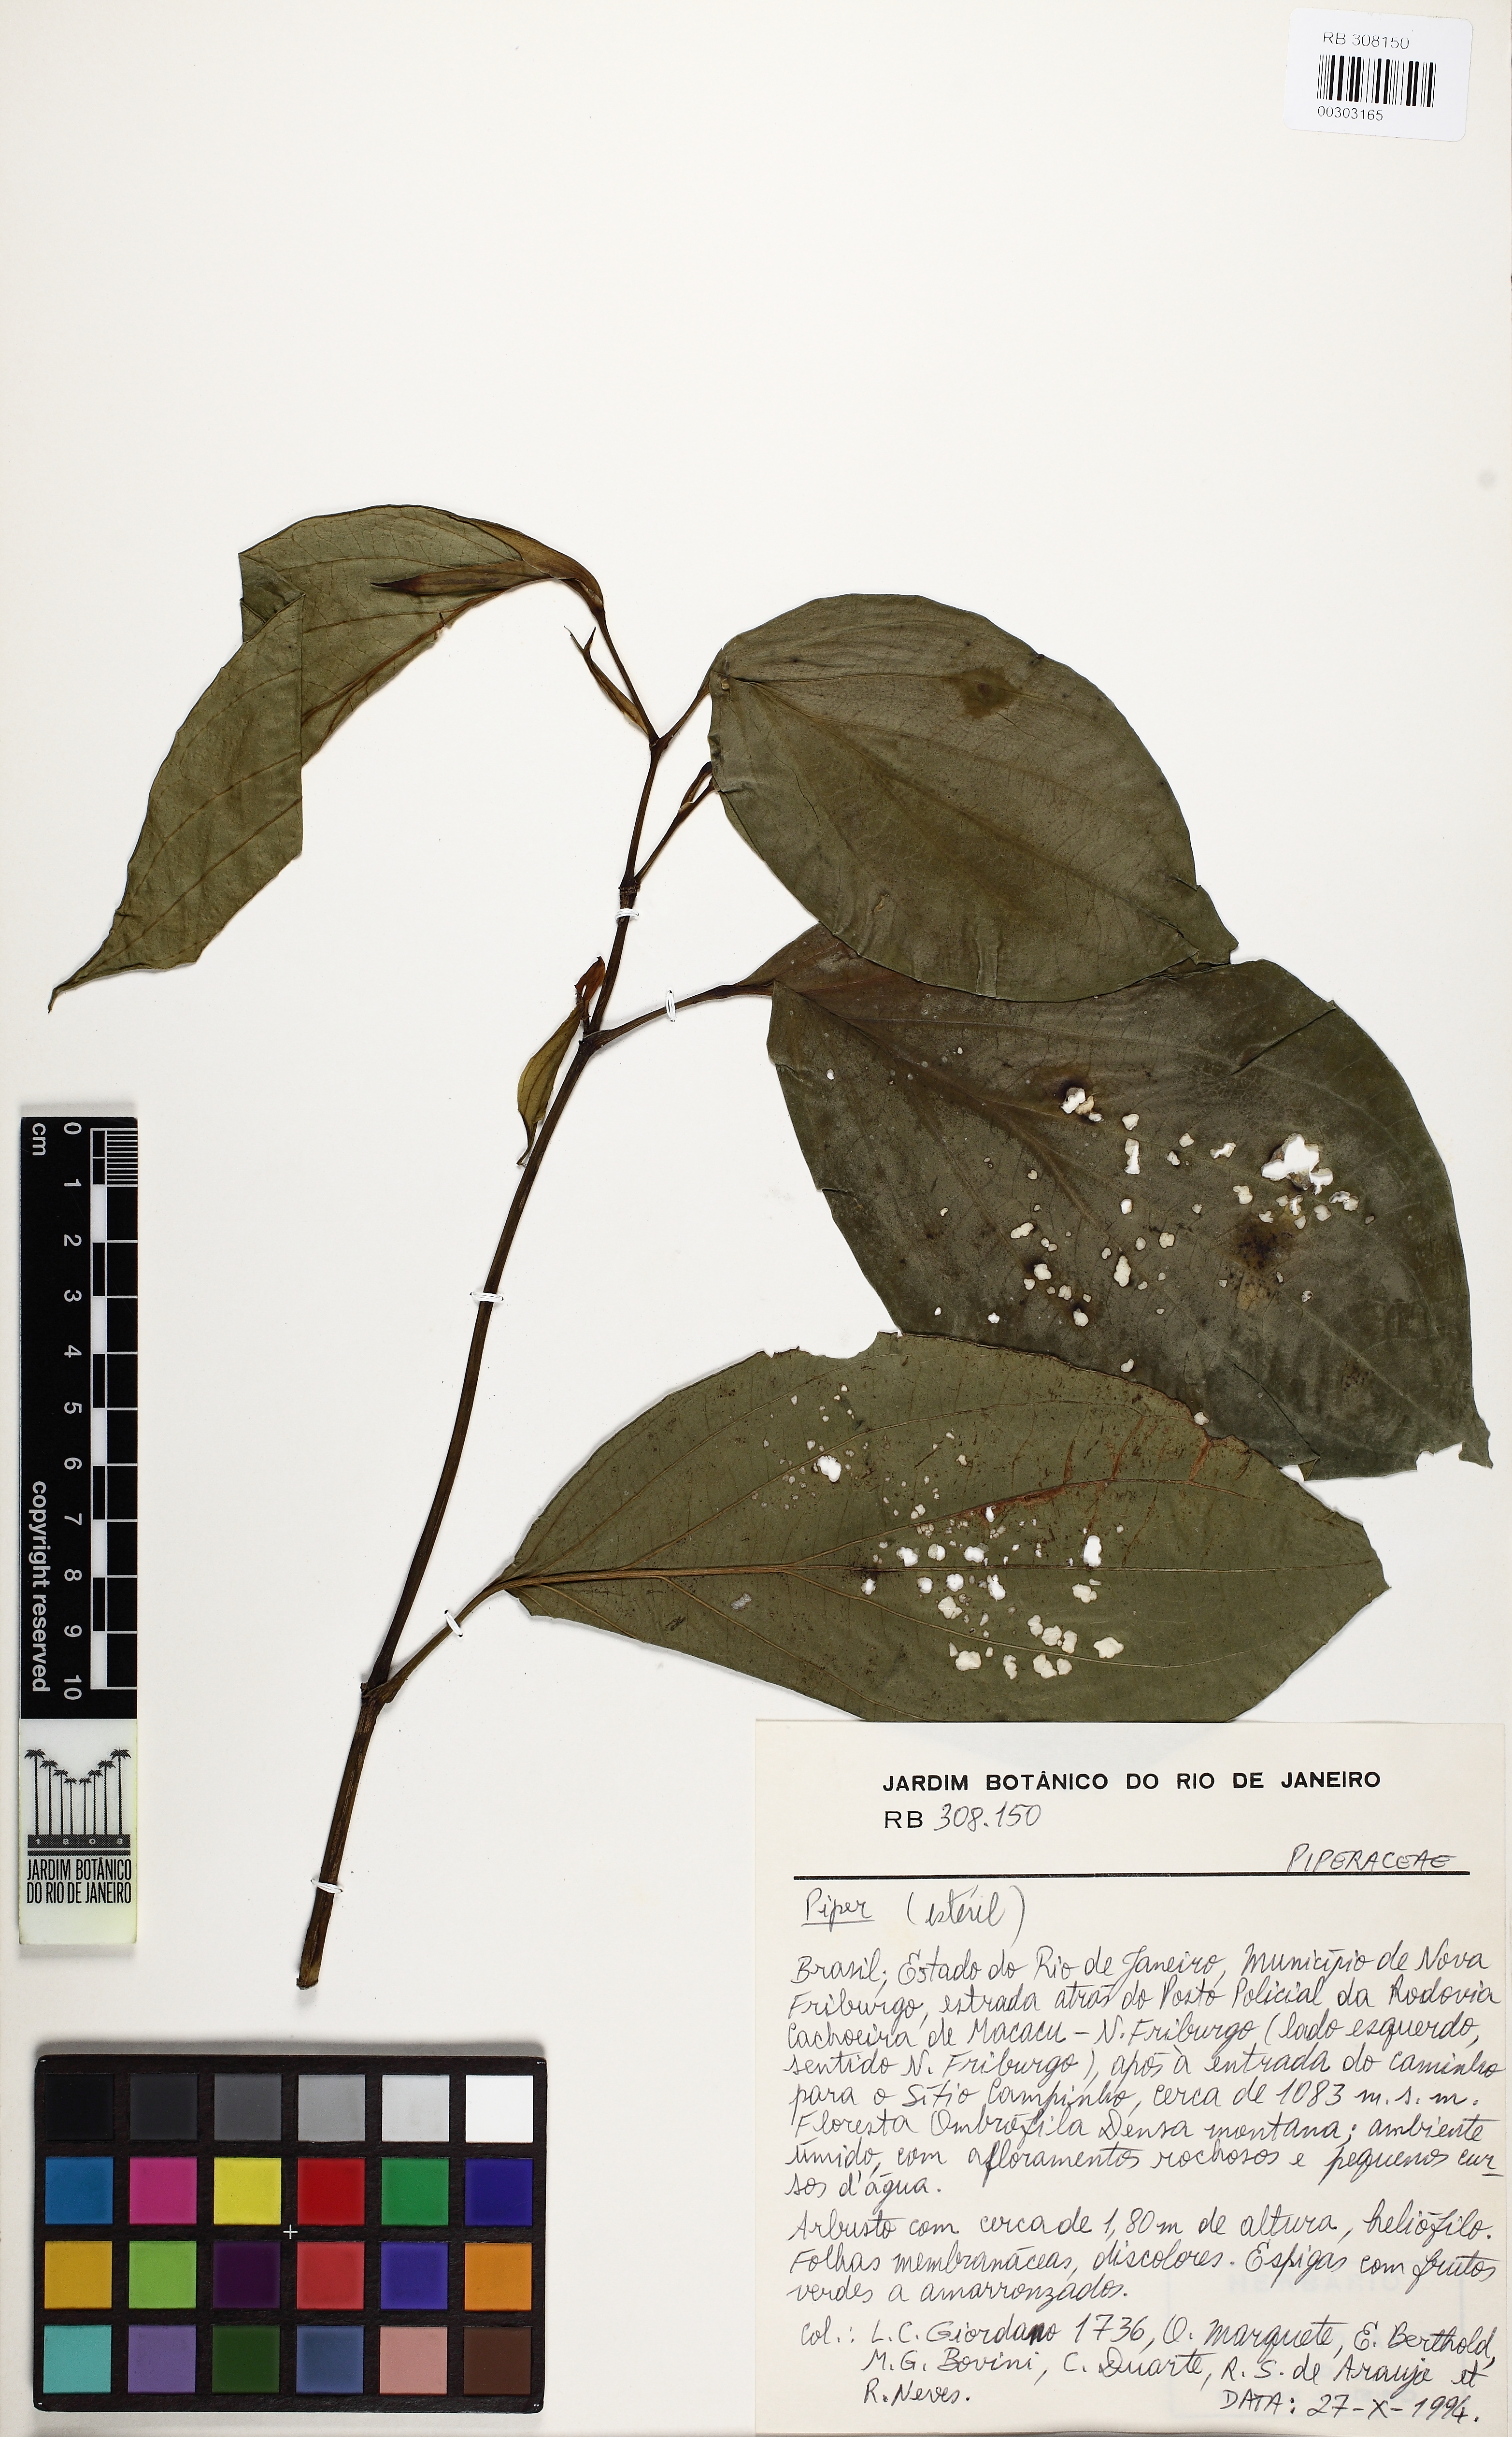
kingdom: Plantae
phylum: Tracheophyta
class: Magnoliopsida
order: Piperales
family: Piperaceae
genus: Piper
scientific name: Piper lhotzkyanum
